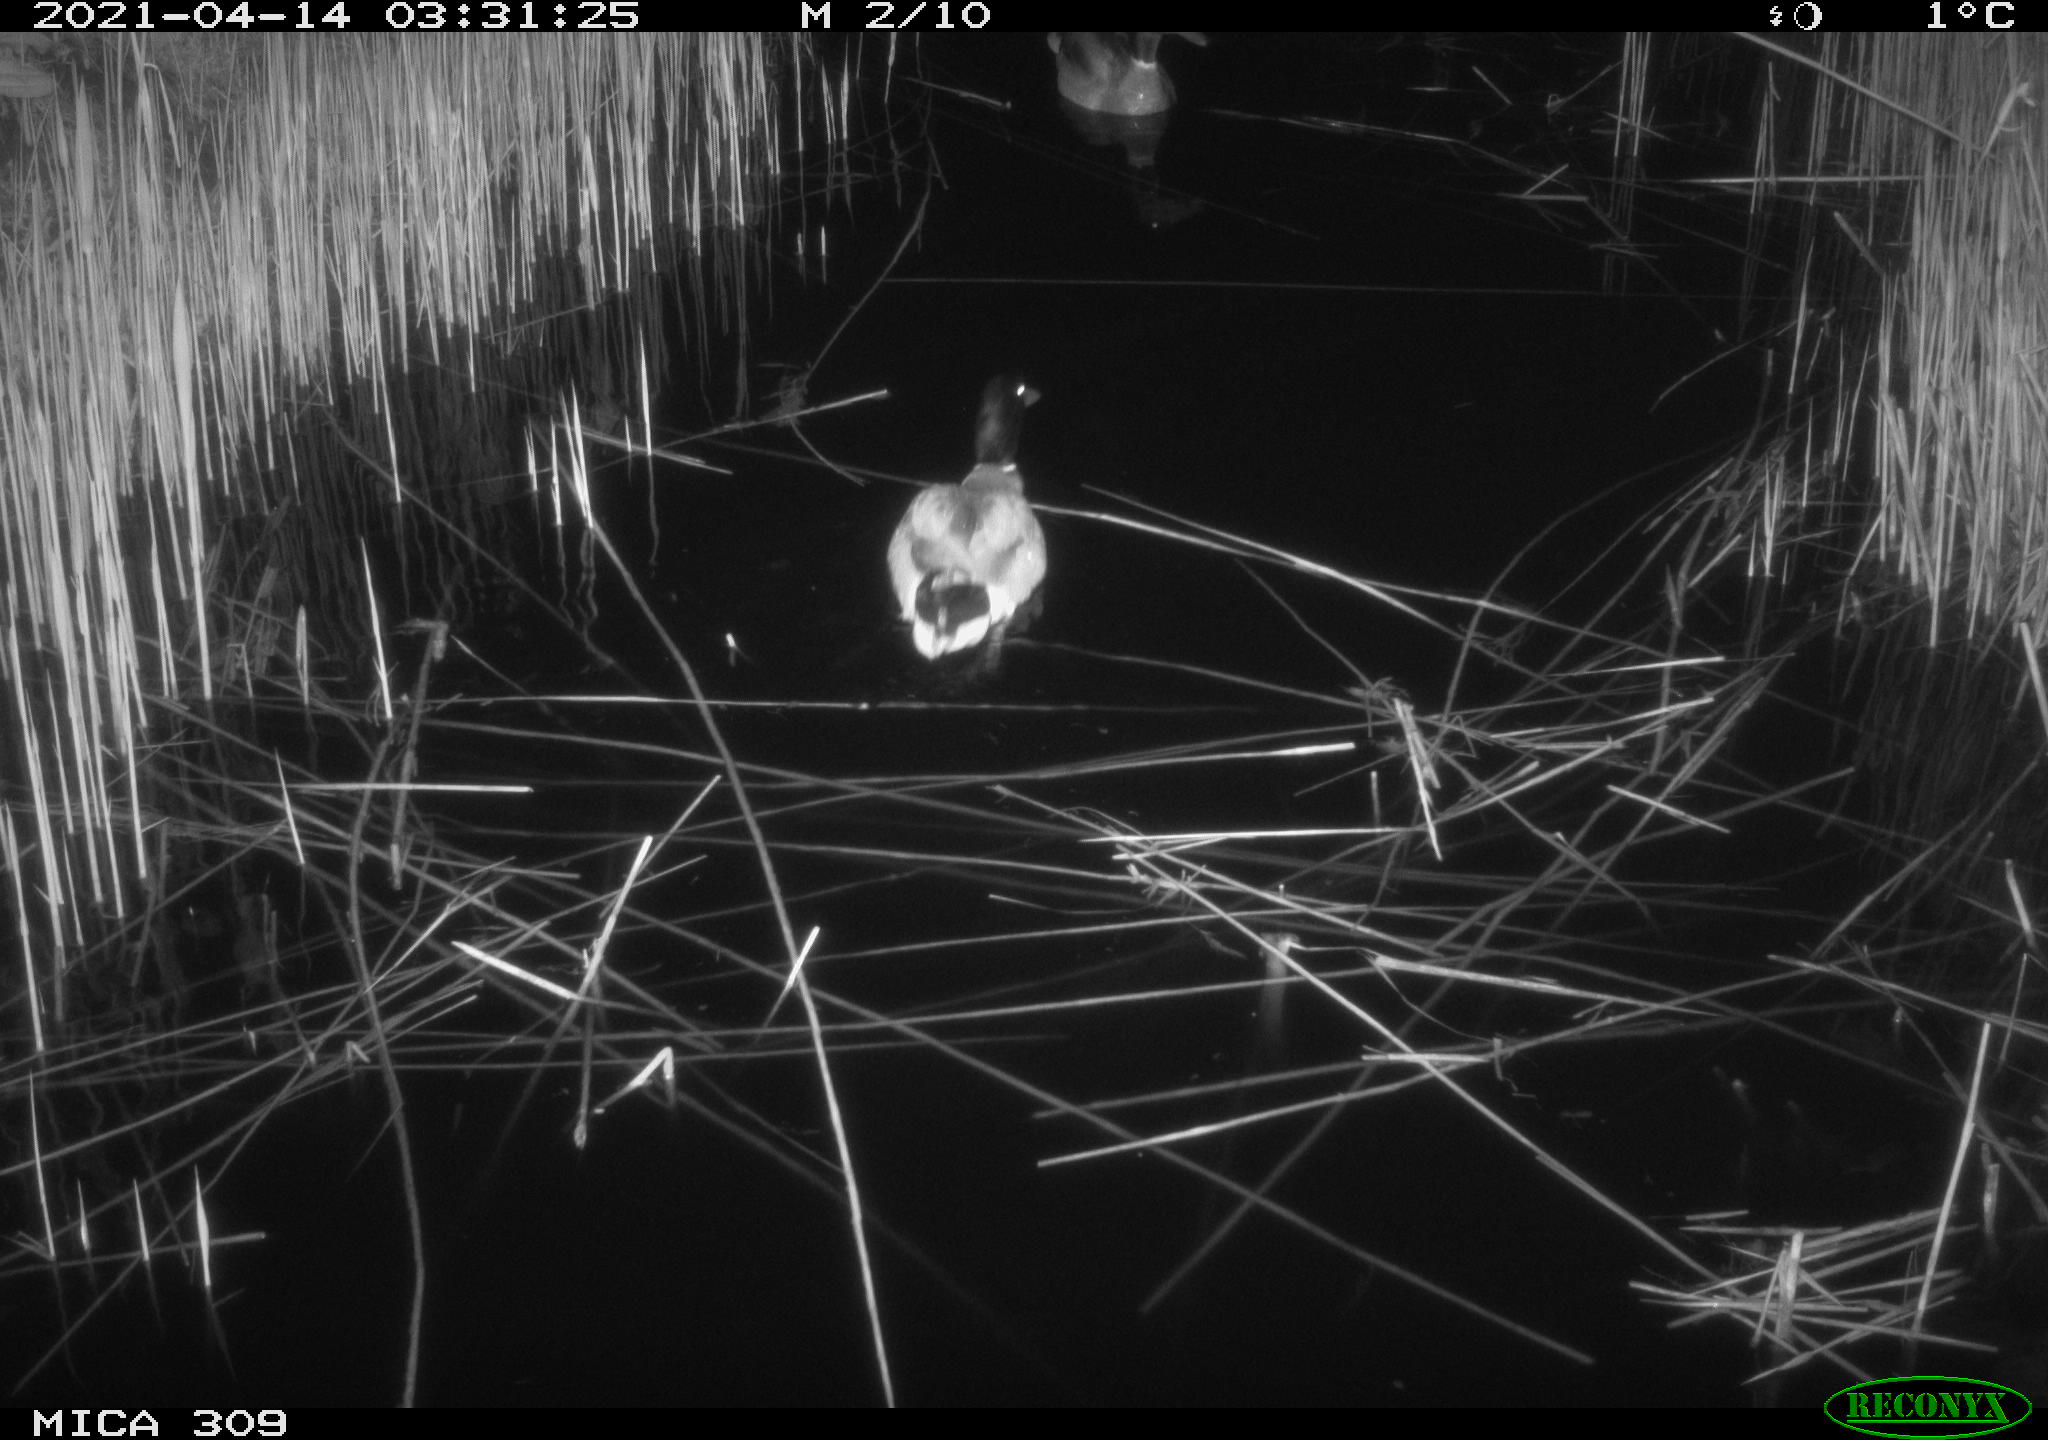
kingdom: Animalia
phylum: Chordata
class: Aves
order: Anseriformes
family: Anatidae
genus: Anas
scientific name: Anas platyrhynchos
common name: Mallard
